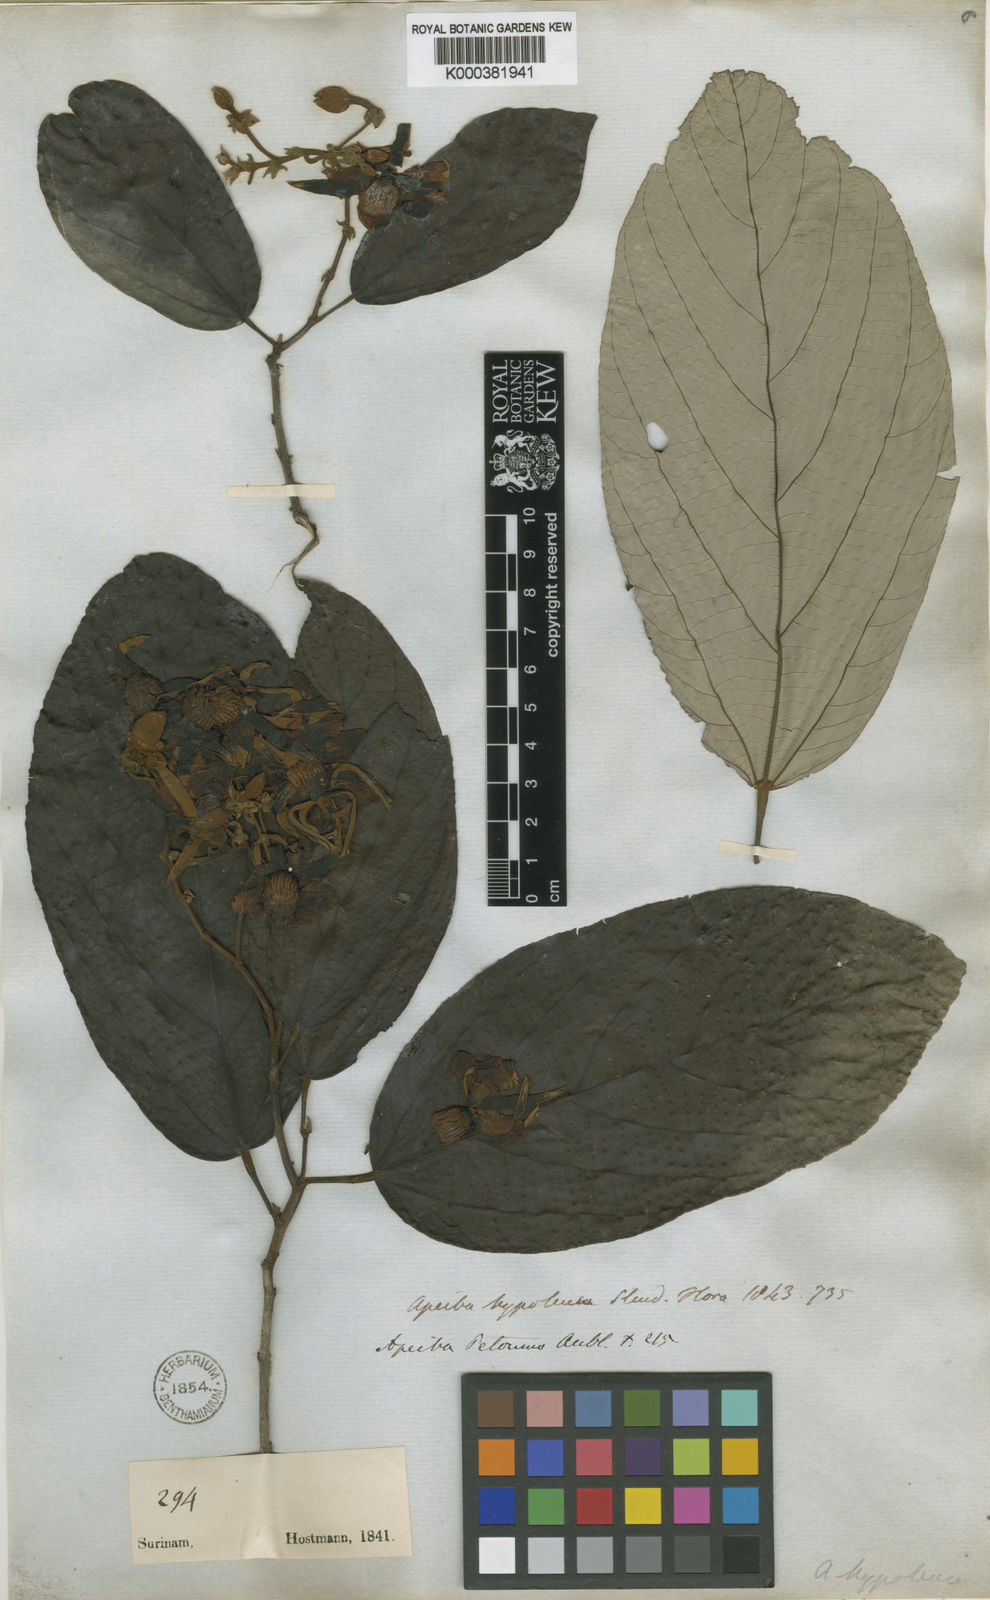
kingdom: Plantae
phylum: Tracheophyta
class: Magnoliopsida
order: Malvales
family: Malvaceae
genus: Apeiba
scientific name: Apeiba petoumo
